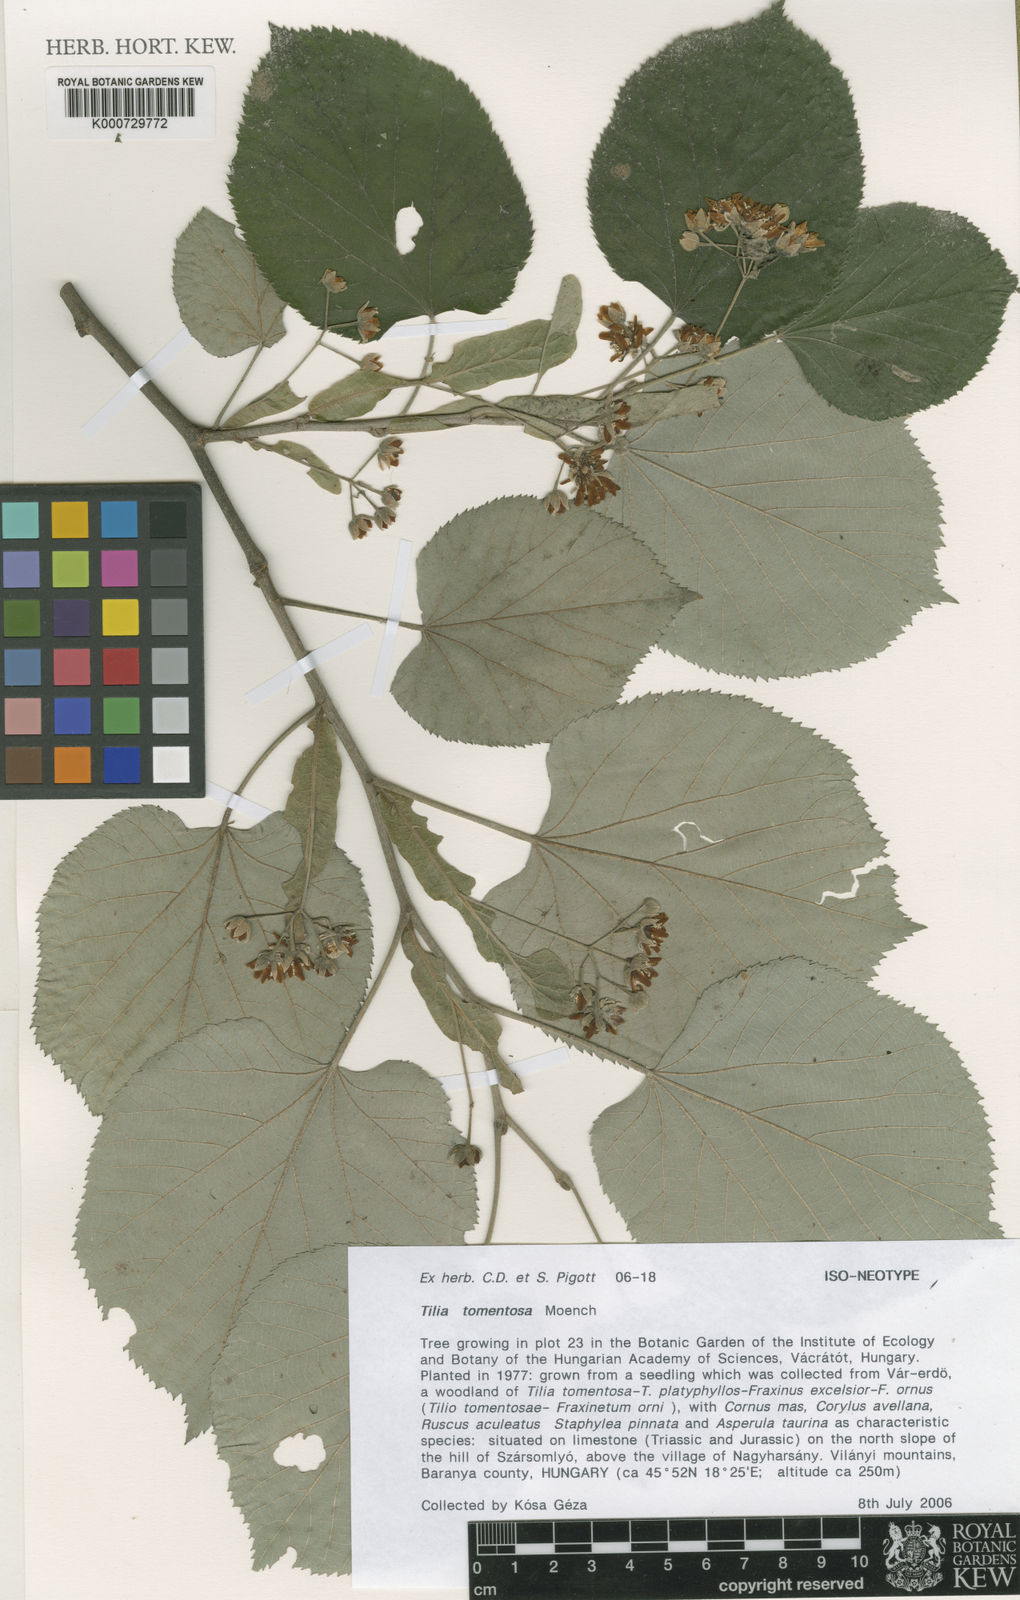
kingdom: Plantae
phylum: Tracheophyta
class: Magnoliopsida
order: Malvales
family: Malvaceae
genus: Tilia
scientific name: Tilia tomentosa
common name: Silver lime
